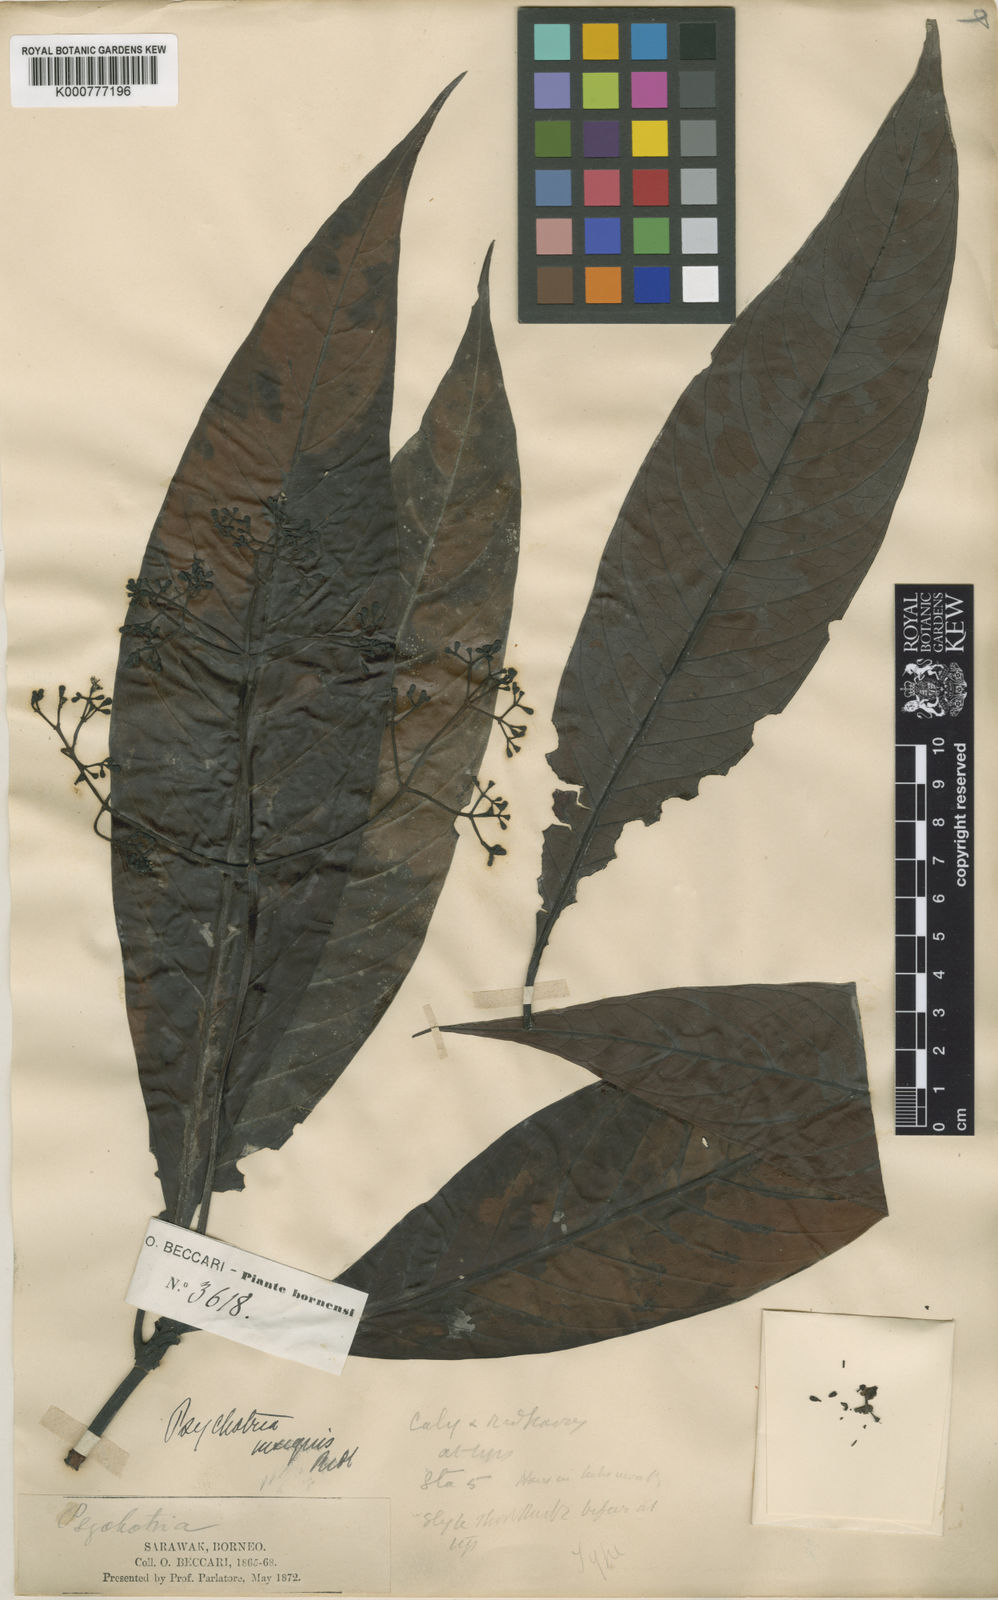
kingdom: Plantae
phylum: Tracheophyta
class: Magnoliopsida
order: Gentianales
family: Rubiaceae
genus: Psychotria
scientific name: Psychotria insignis
